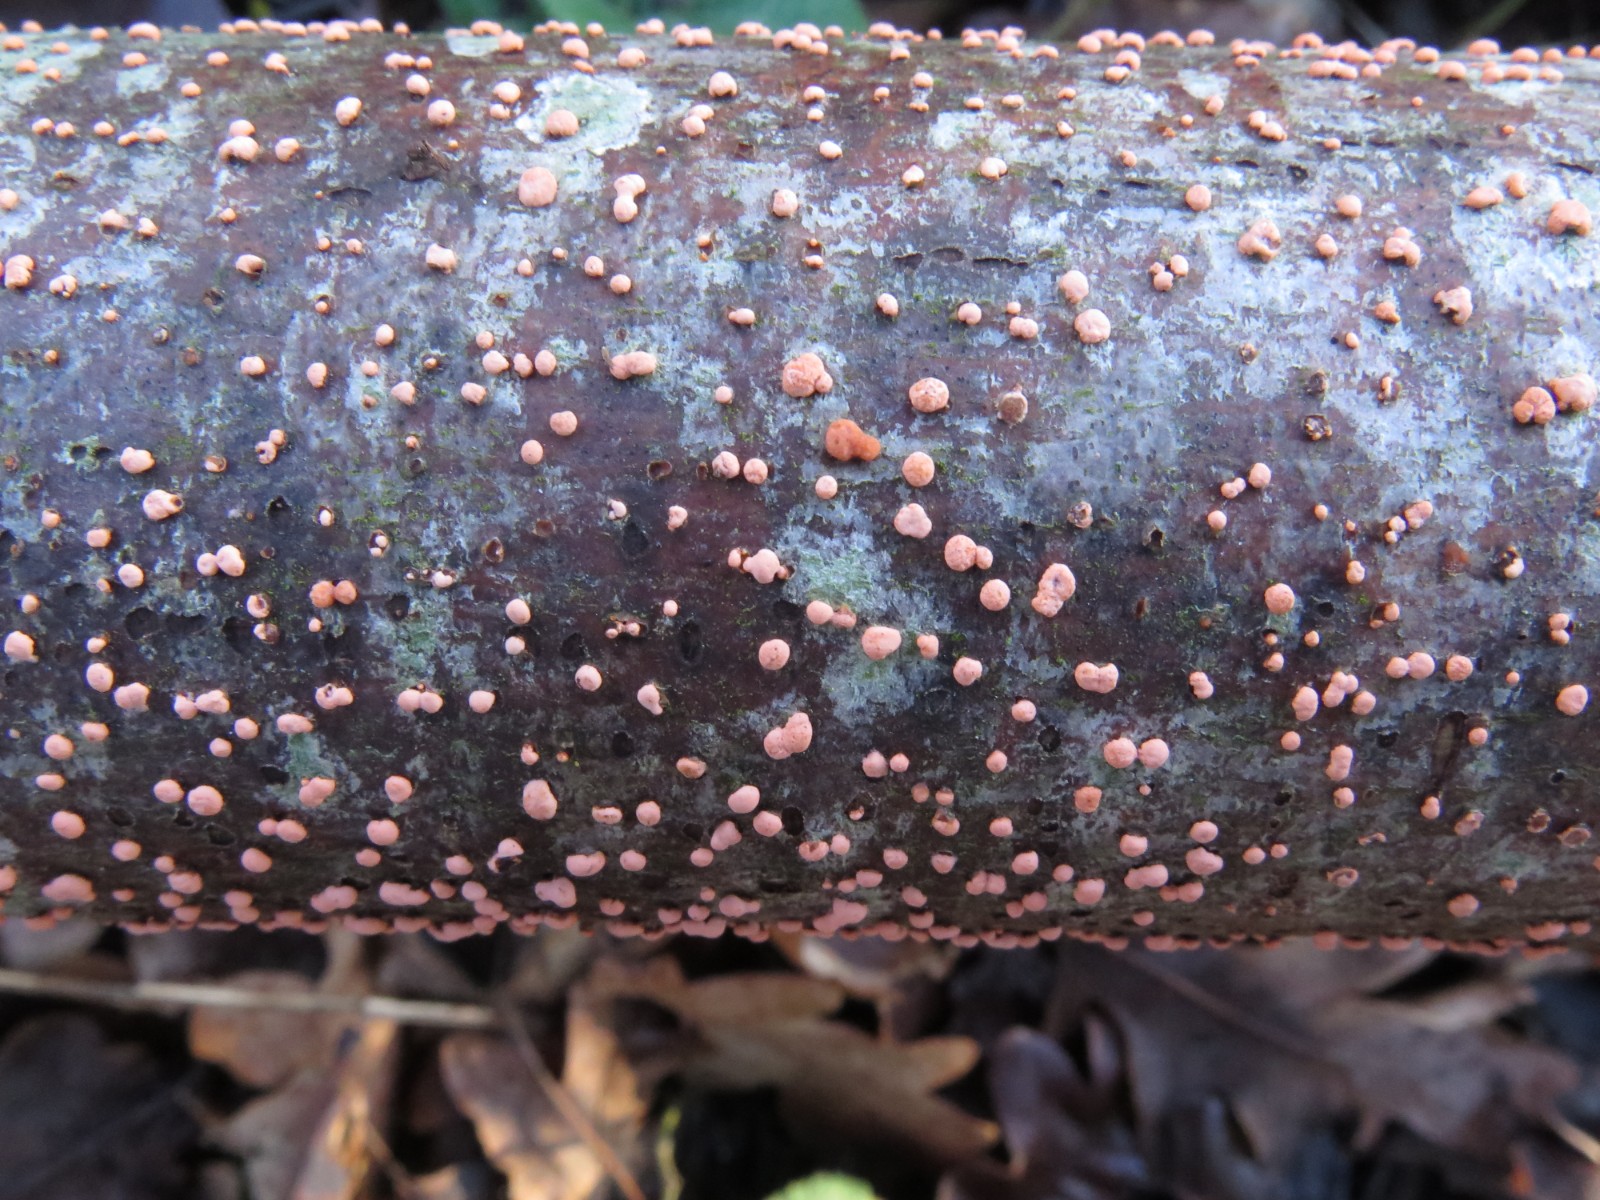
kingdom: Fungi
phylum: Ascomycota
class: Sordariomycetes
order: Hypocreales
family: Nectriaceae
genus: Nectria
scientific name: Nectria cinnabarina
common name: almindelig cinnobersvamp
